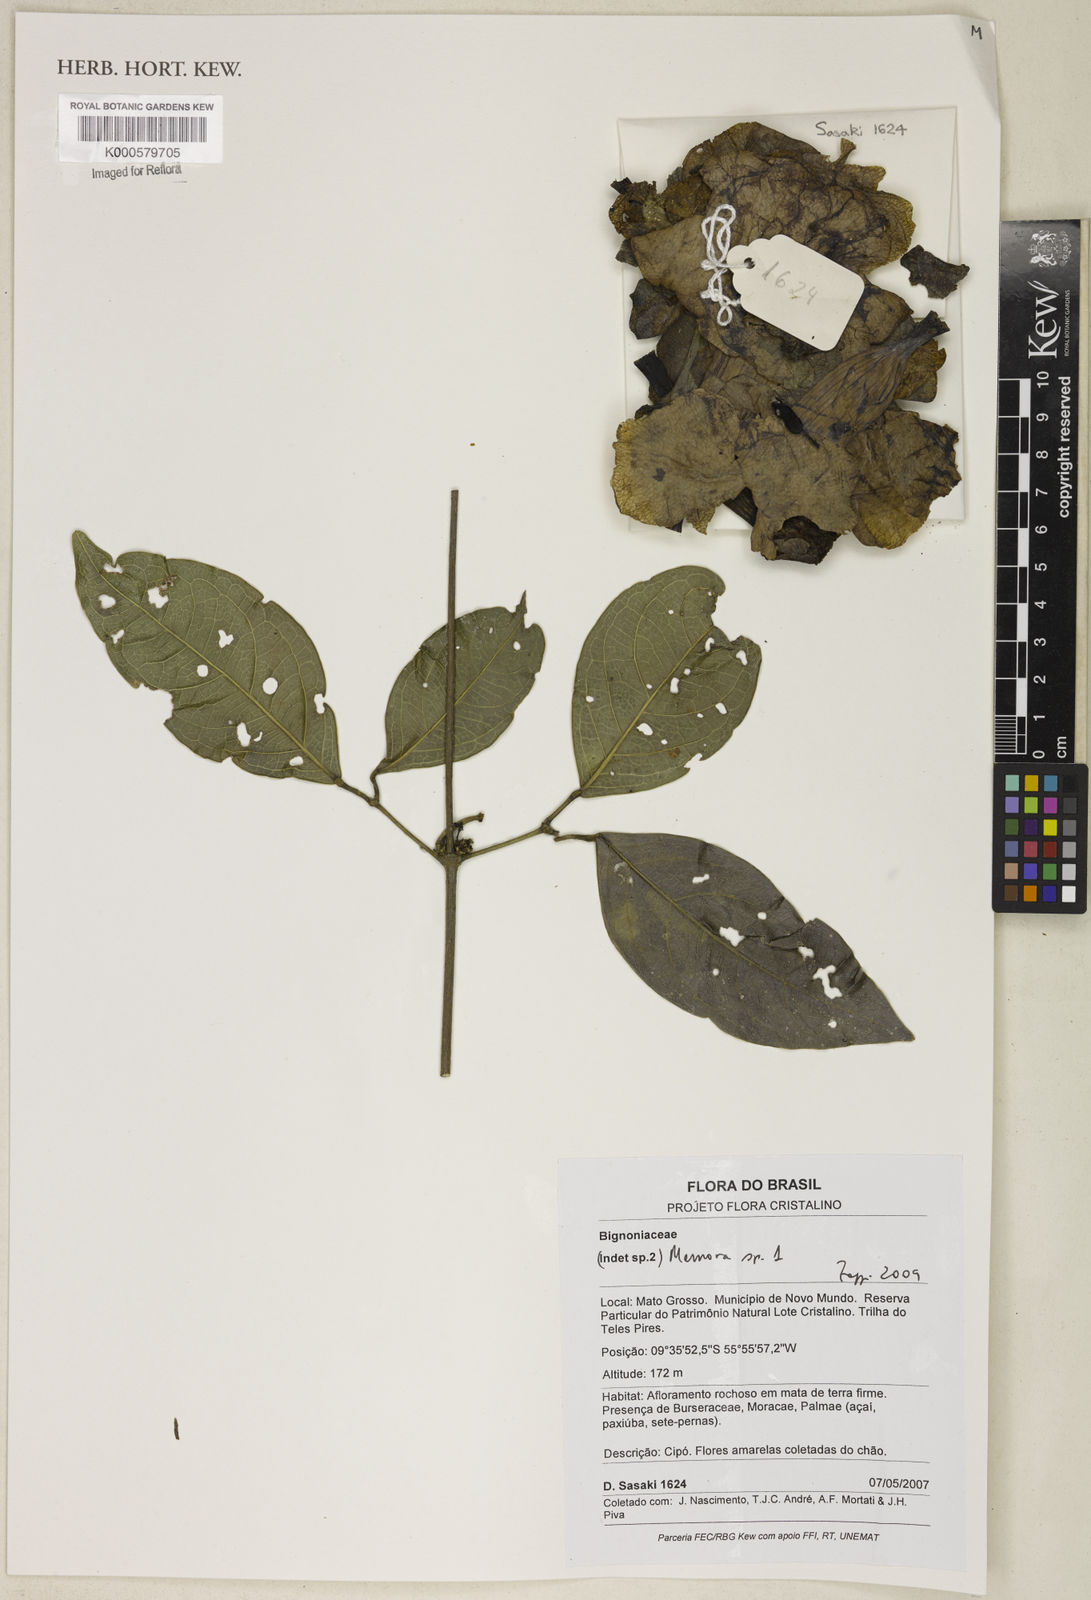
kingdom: Plantae
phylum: Tracheophyta
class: Magnoliopsida
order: Lamiales
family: Bignoniaceae
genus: Adenocalymma
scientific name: Adenocalymma impressum
